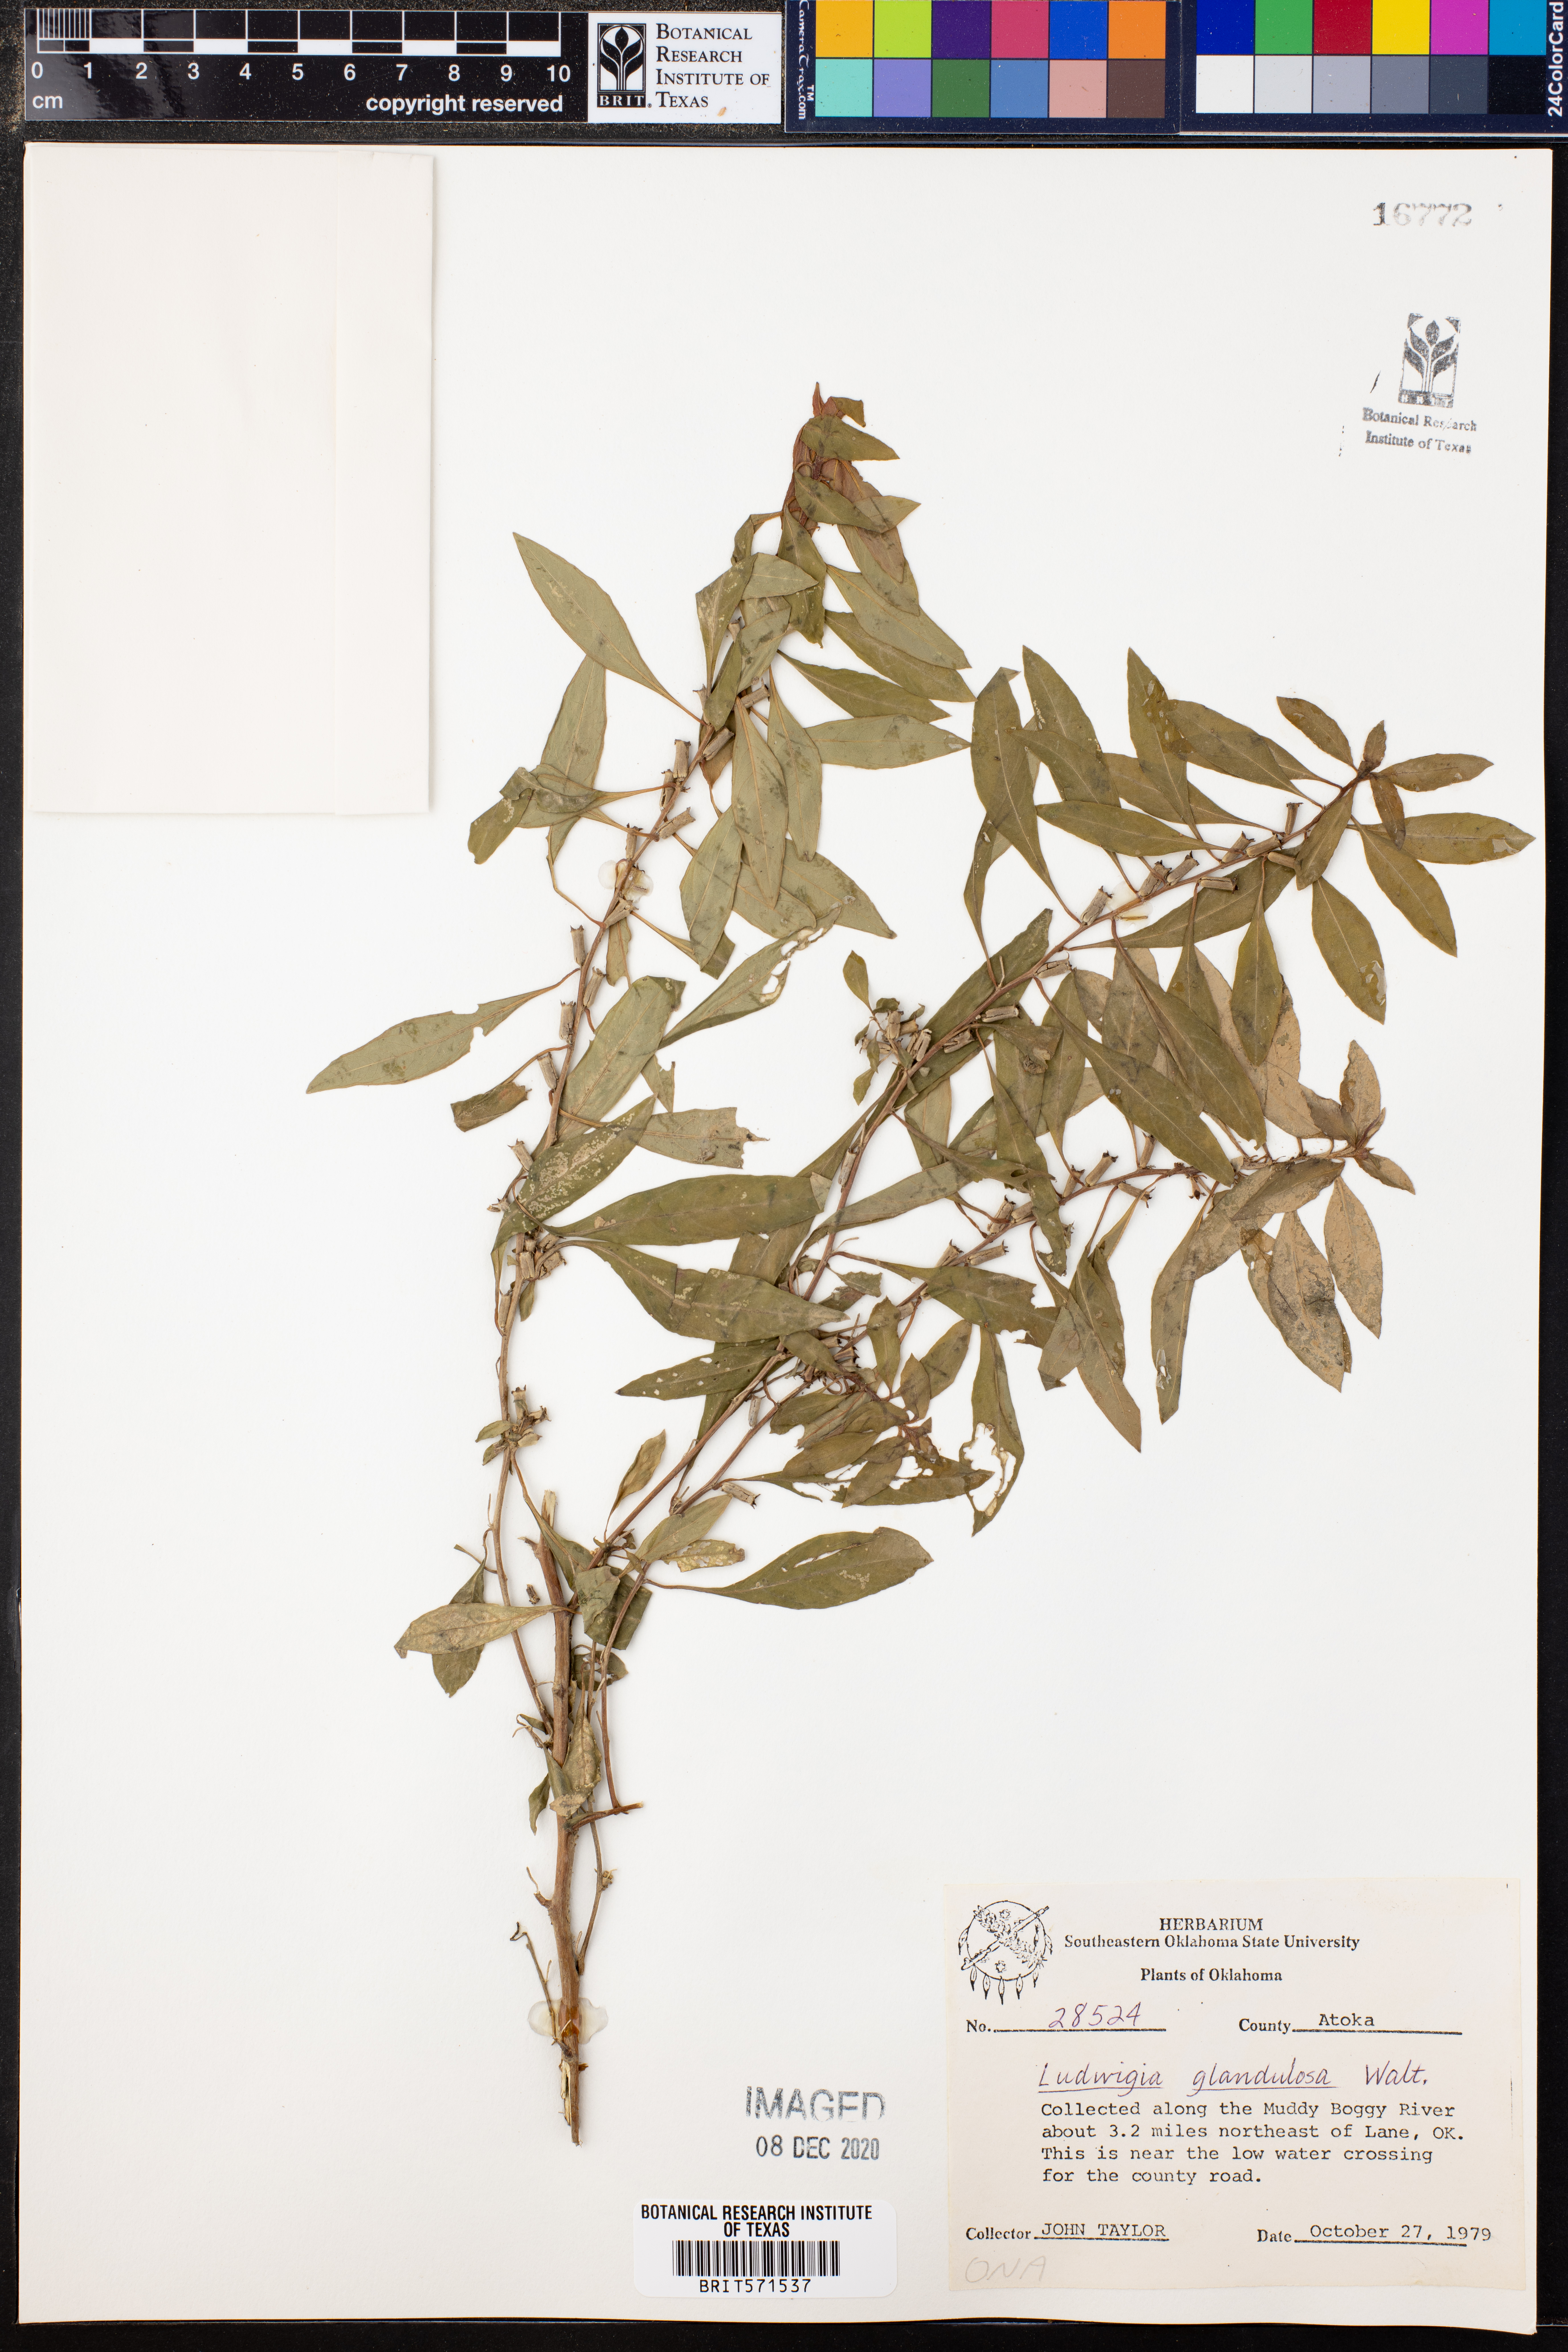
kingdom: Plantae
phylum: Tracheophyta
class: Magnoliopsida
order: Myrtales
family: Onagraceae
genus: Ludwigia
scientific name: Ludwigia glandulosa
